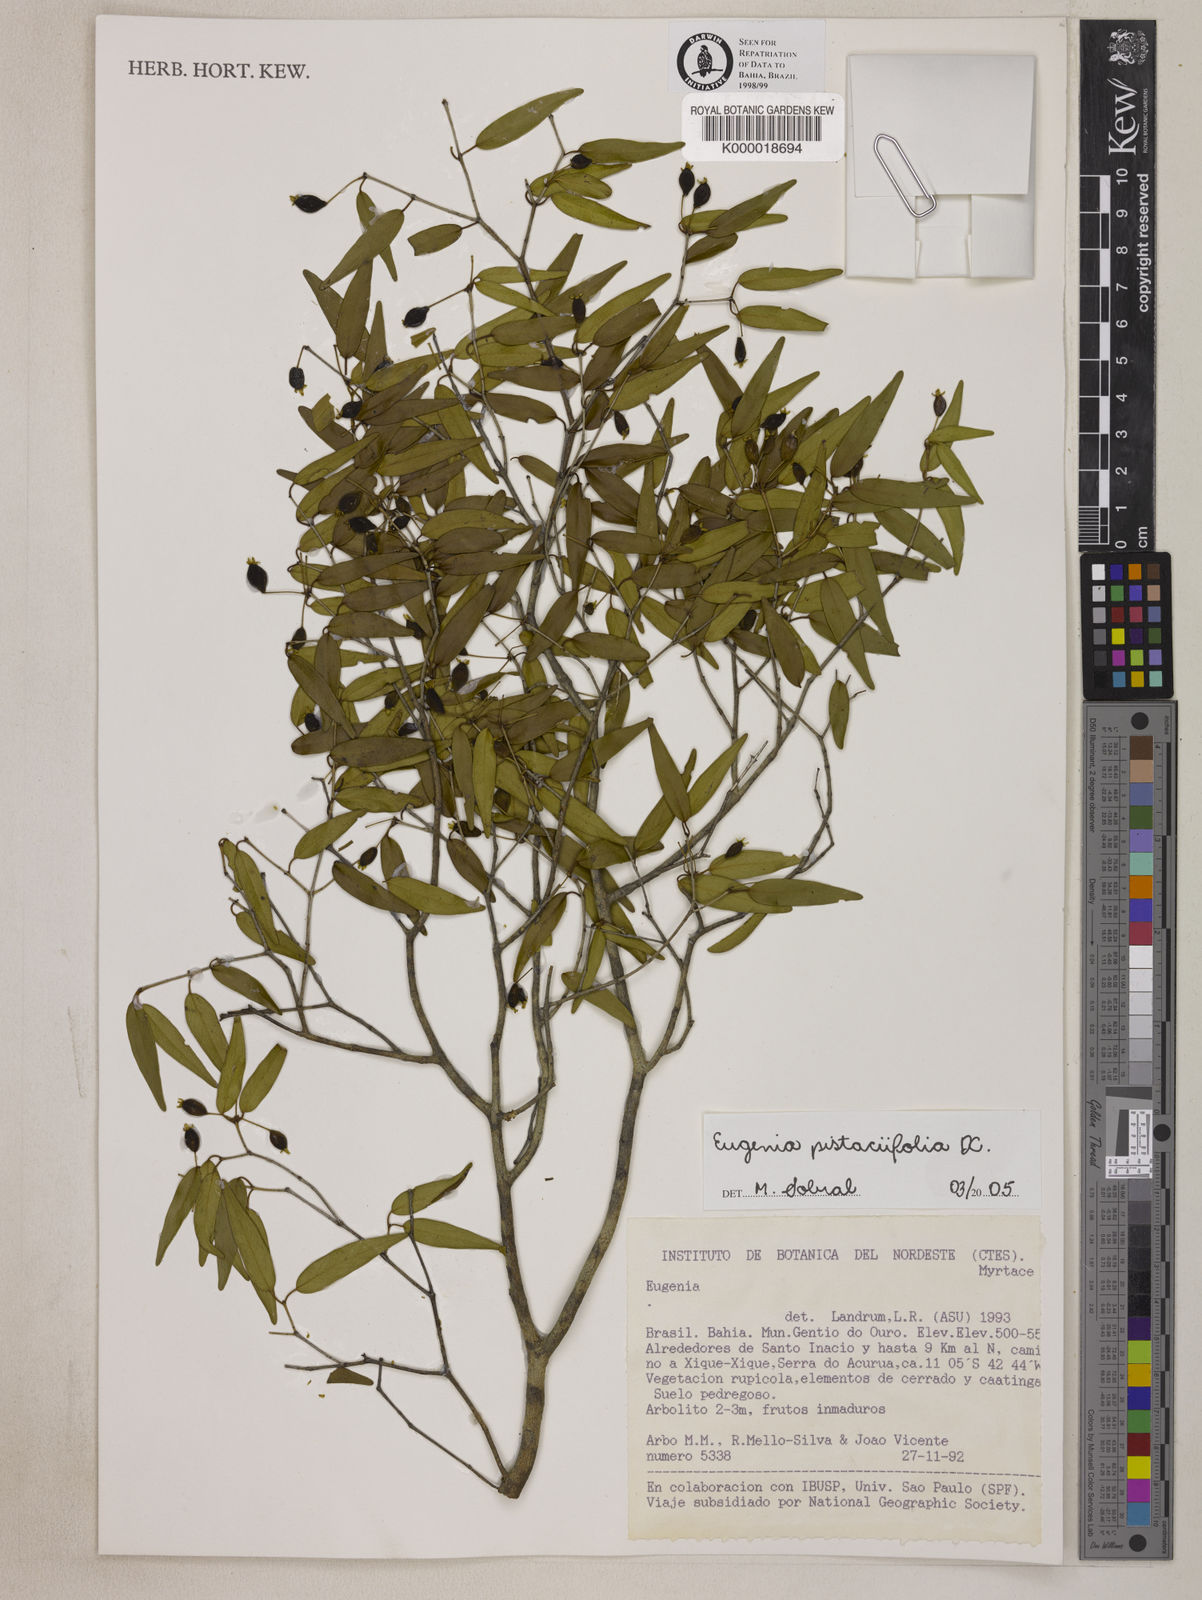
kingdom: Plantae
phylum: Tracheophyta
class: Magnoliopsida
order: Myrtales
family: Myrtaceae
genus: Eugenia
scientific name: Eugenia pistaciifolia
